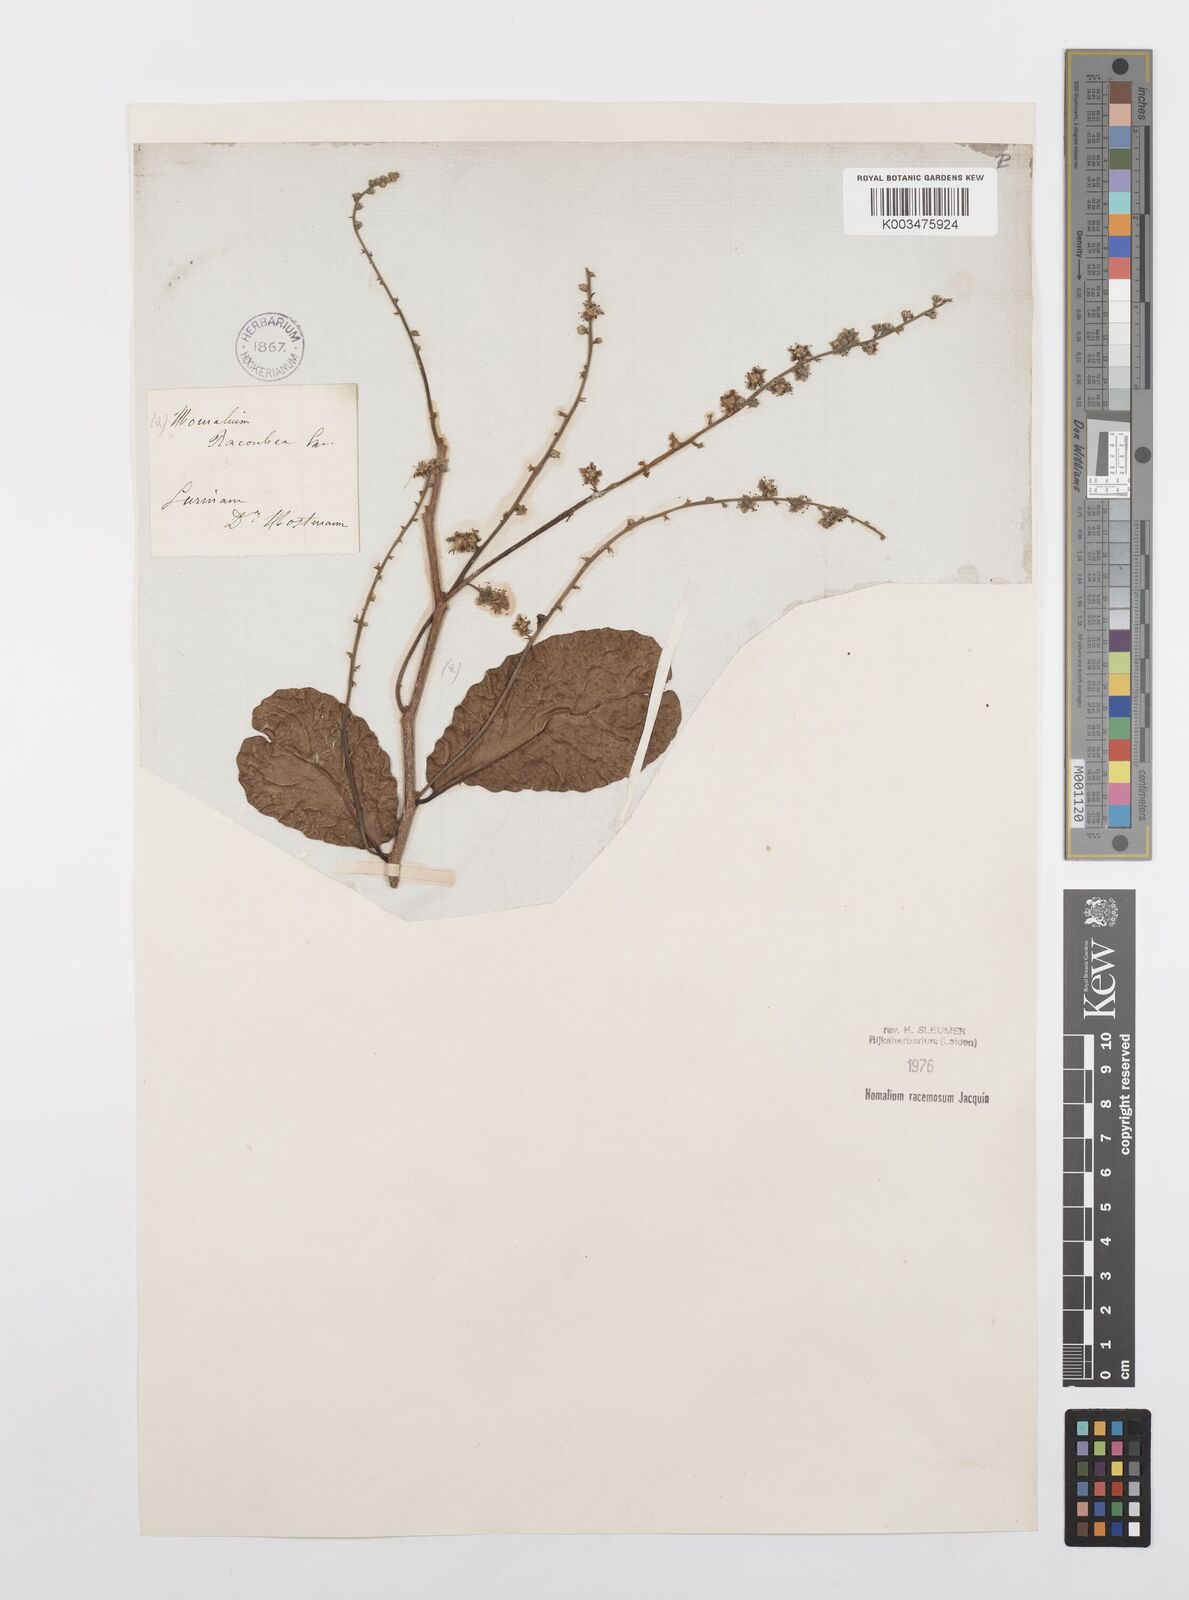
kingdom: Plantae
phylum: Tracheophyta
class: Magnoliopsida
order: Malpighiales
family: Salicaceae
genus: Homalium
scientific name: Homalium racemosum
